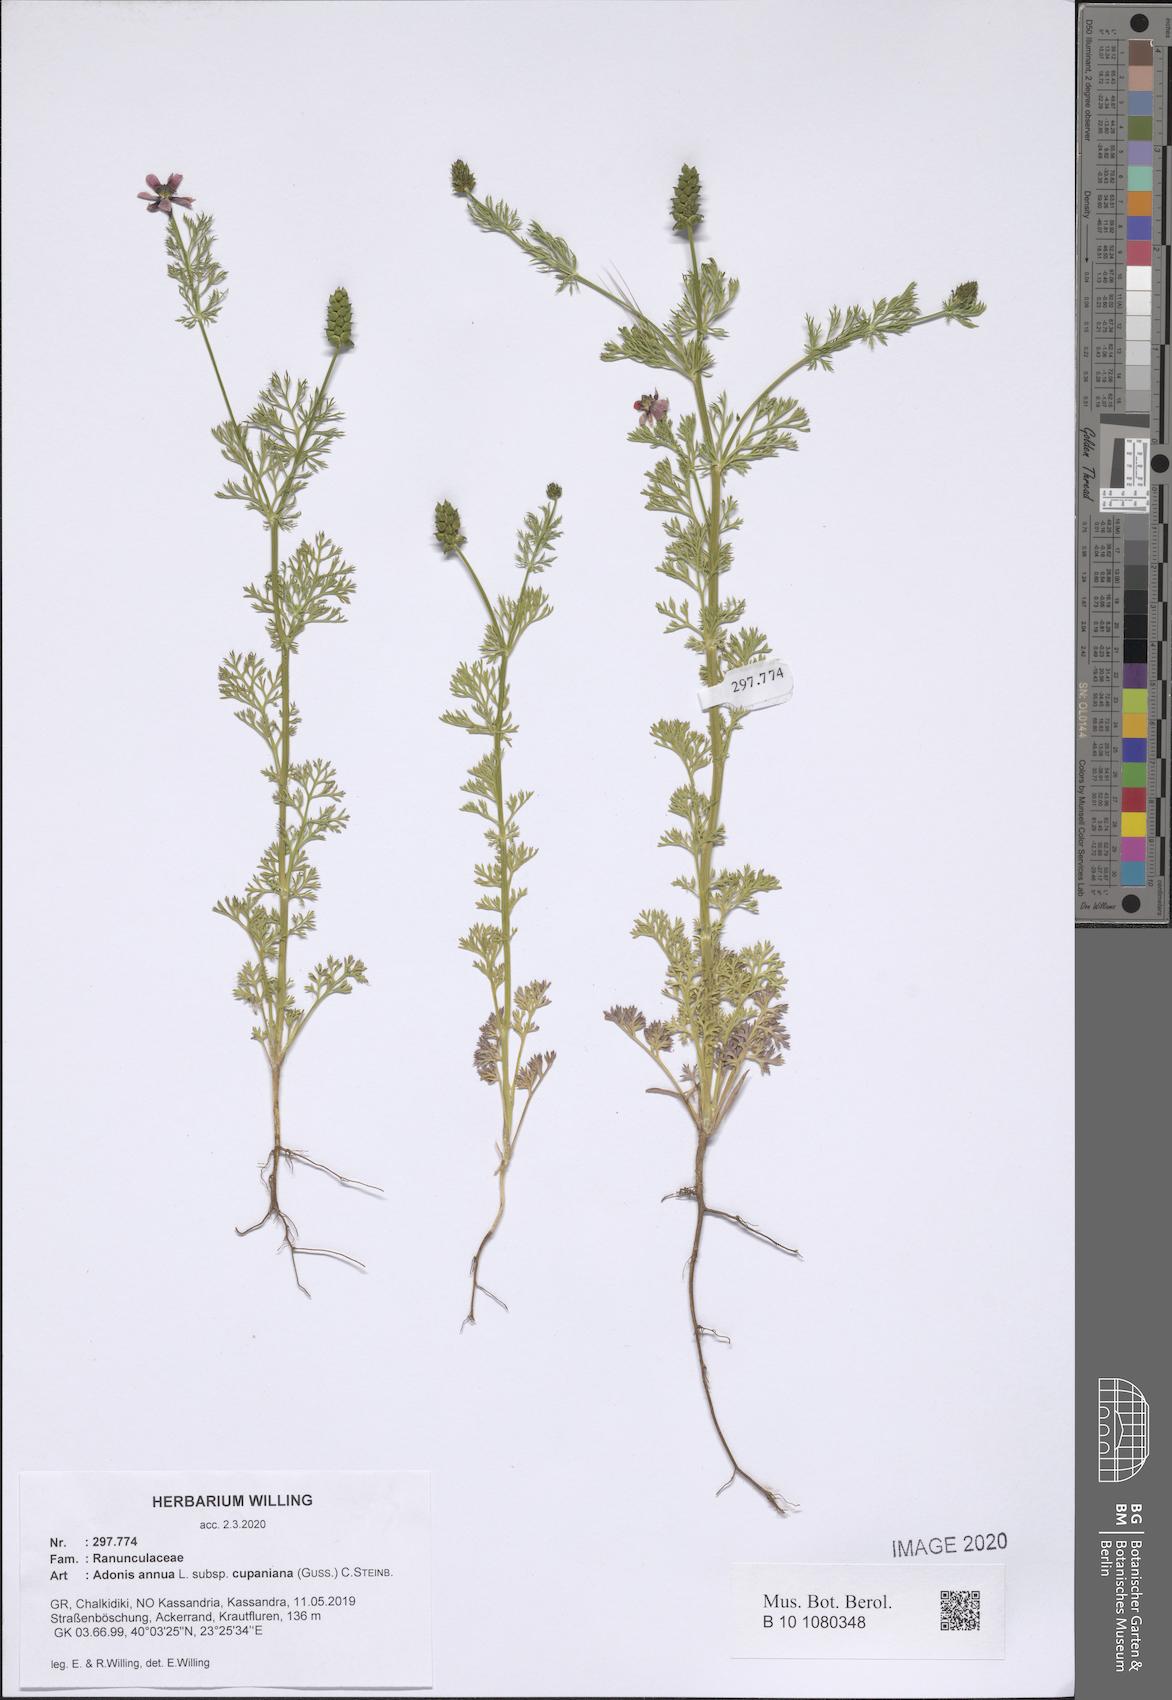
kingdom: Plantae
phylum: Tracheophyta
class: Magnoliopsida
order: Ranunculales
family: Ranunculaceae
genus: Adonis
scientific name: Adonis annua
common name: Pheasant's-eye
